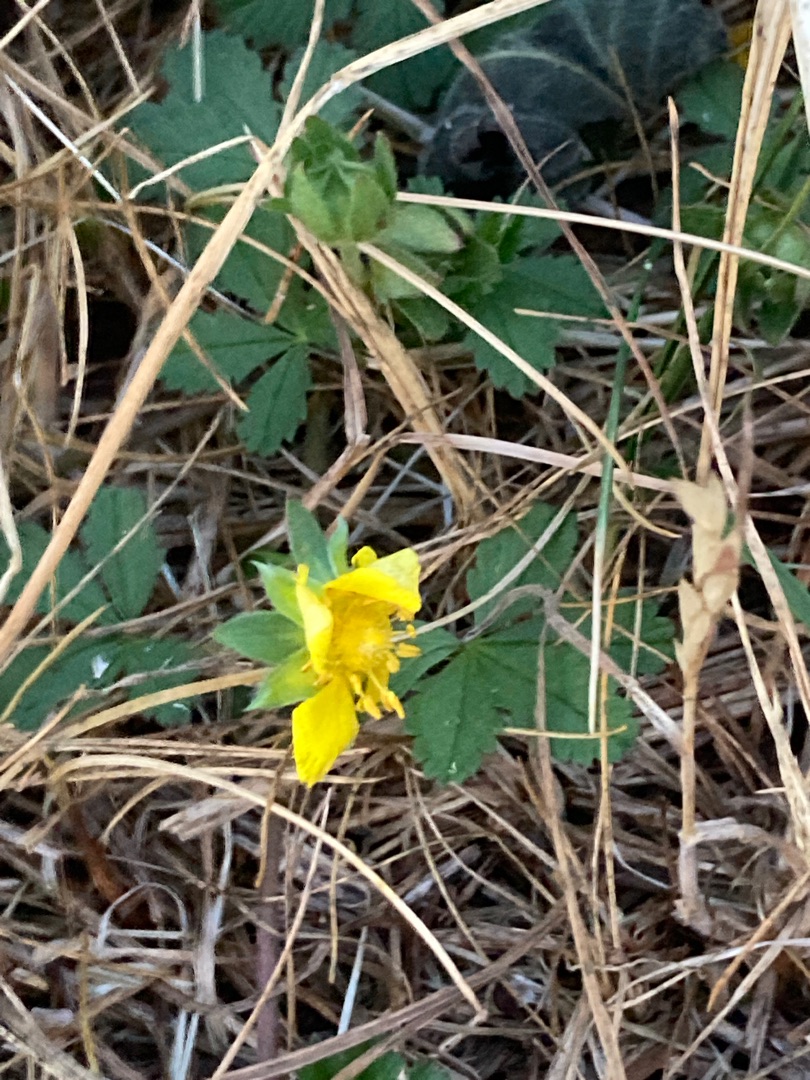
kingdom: Plantae
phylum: Tracheophyta
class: Magnoliopsida
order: Rosales
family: Rosaceae
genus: Potentilla
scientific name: Potentilla reptans
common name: Krybende potentil
